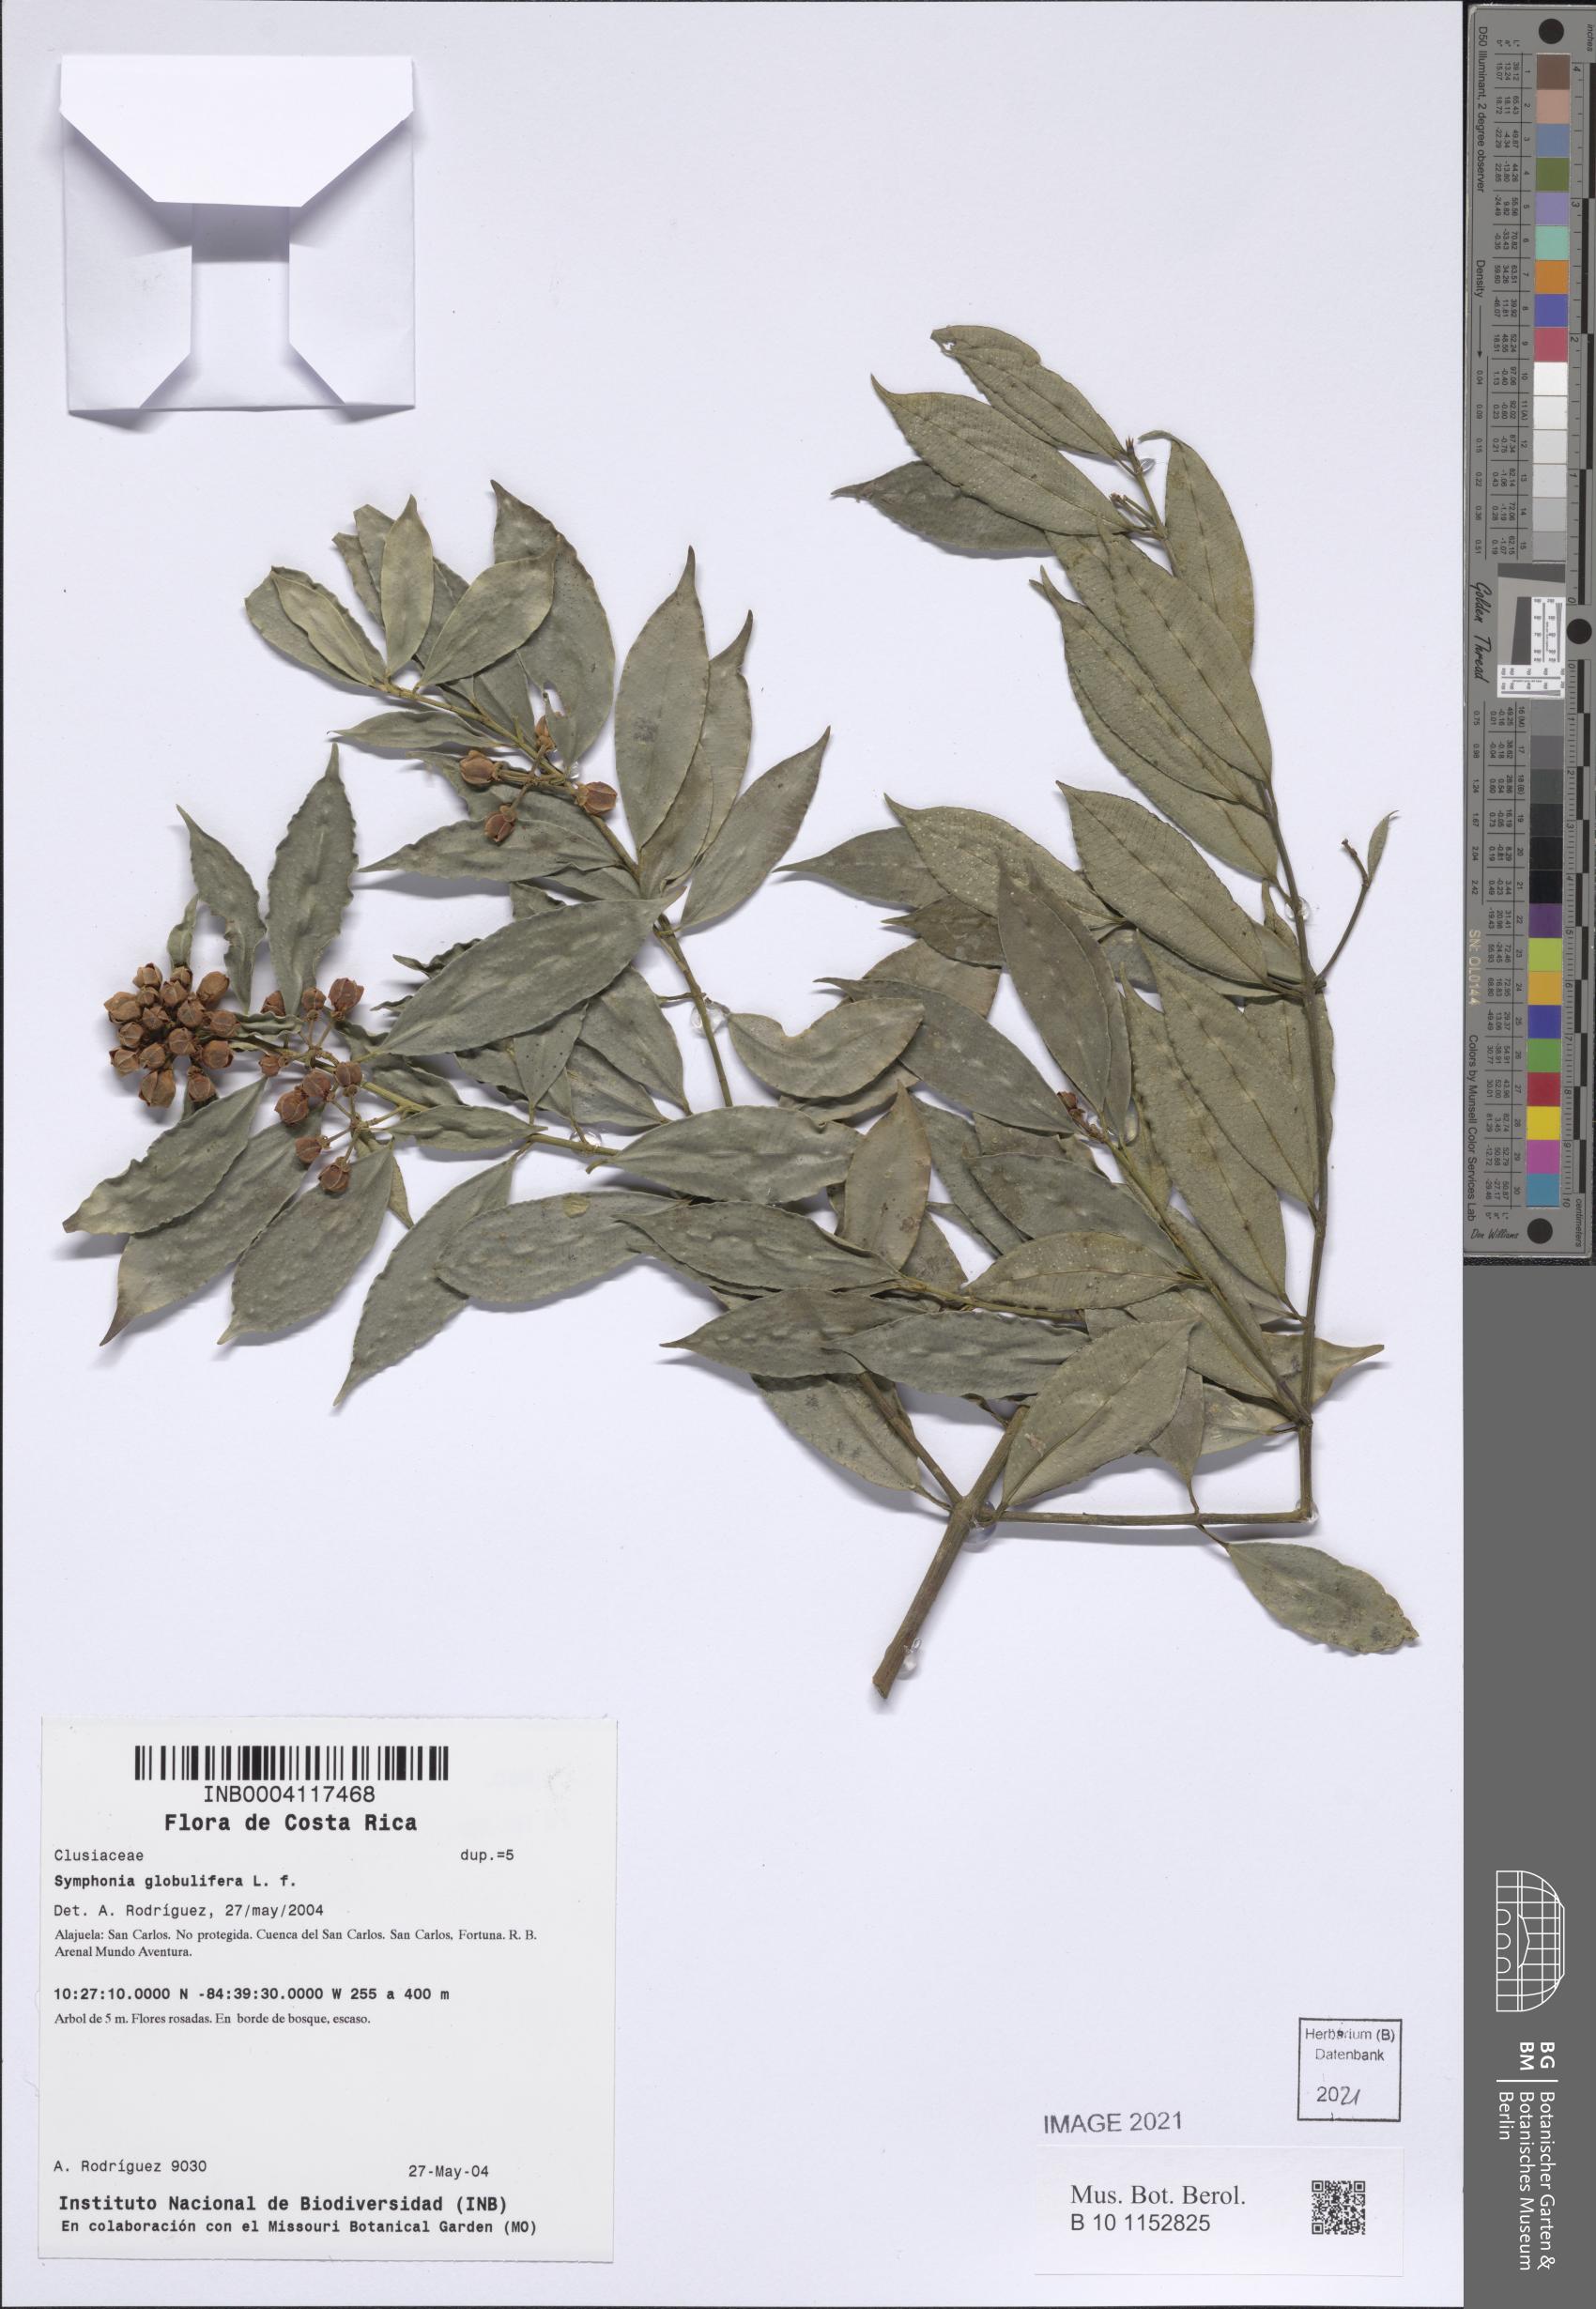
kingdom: Plantae
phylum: Tracheophyta
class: Magnoliopsida
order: Malpighiales
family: Clusiaceae
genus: Symphonia
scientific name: Symphonia globulifera
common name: Boarwood
